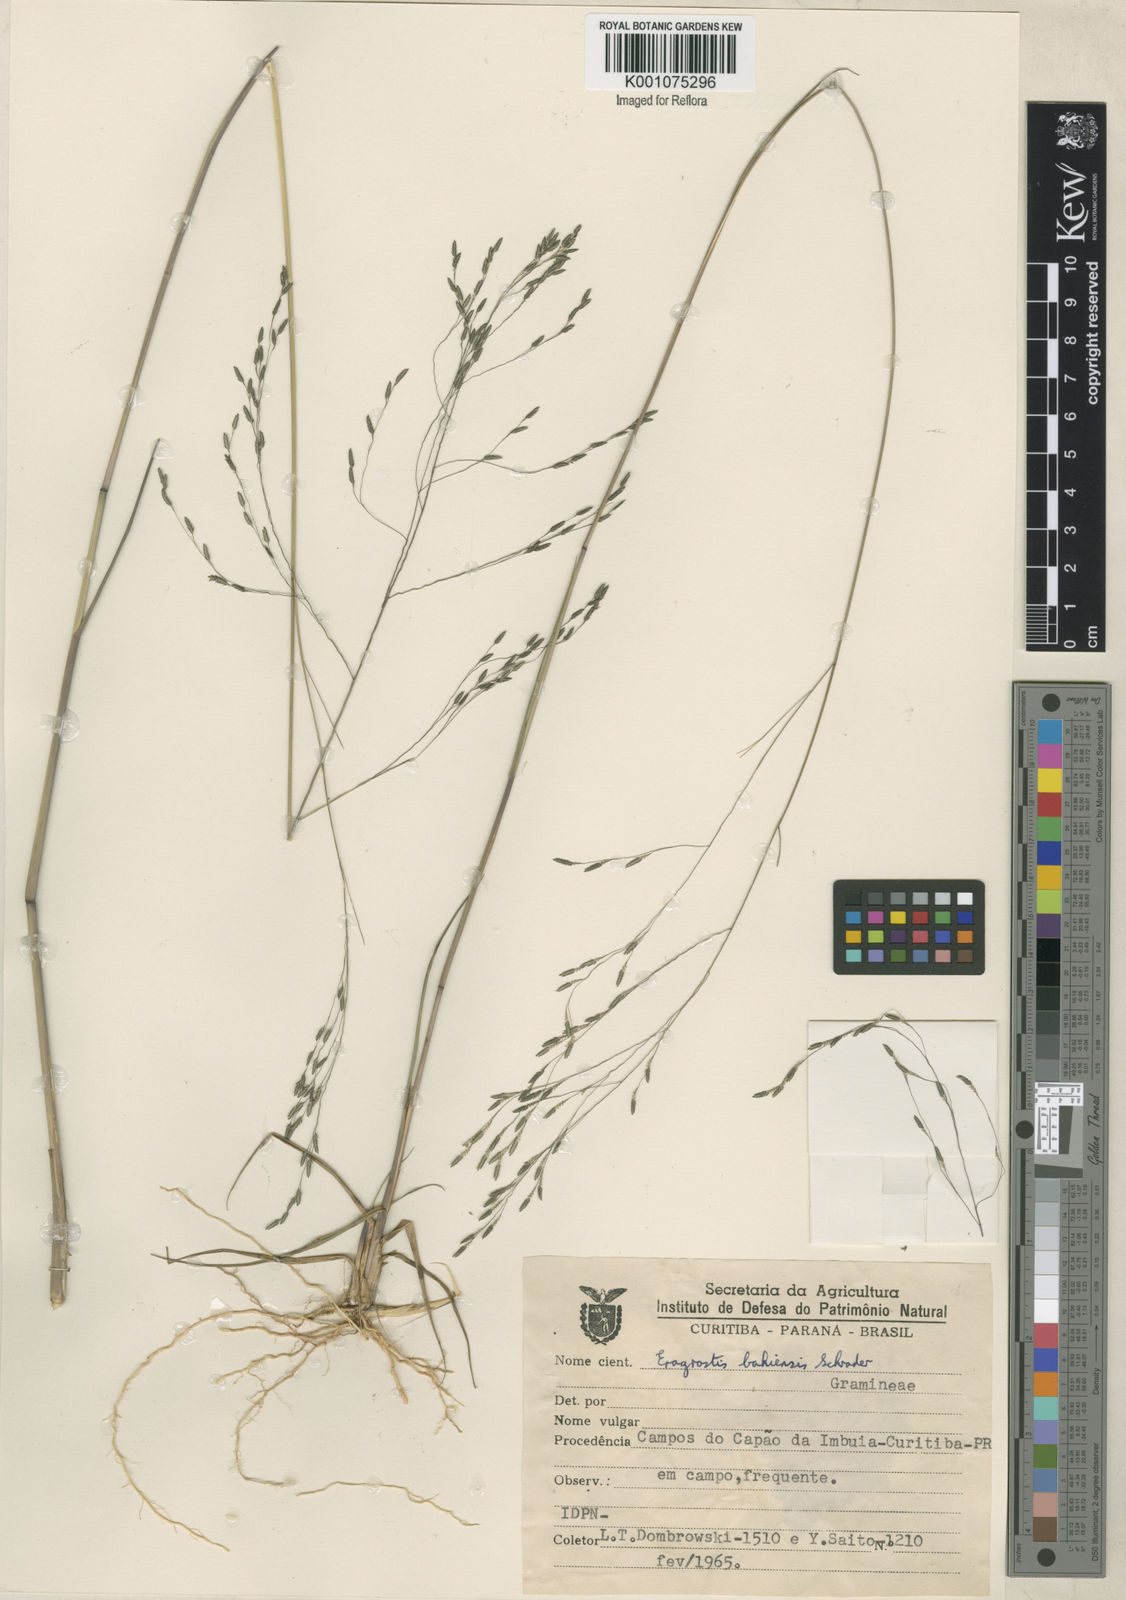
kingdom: Plantae
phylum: Tracheophyta
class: Liliopsida
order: Poales
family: Poaceae
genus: Eragrostis
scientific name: Eragrostis bahiensis
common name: Bahia lovegrass
